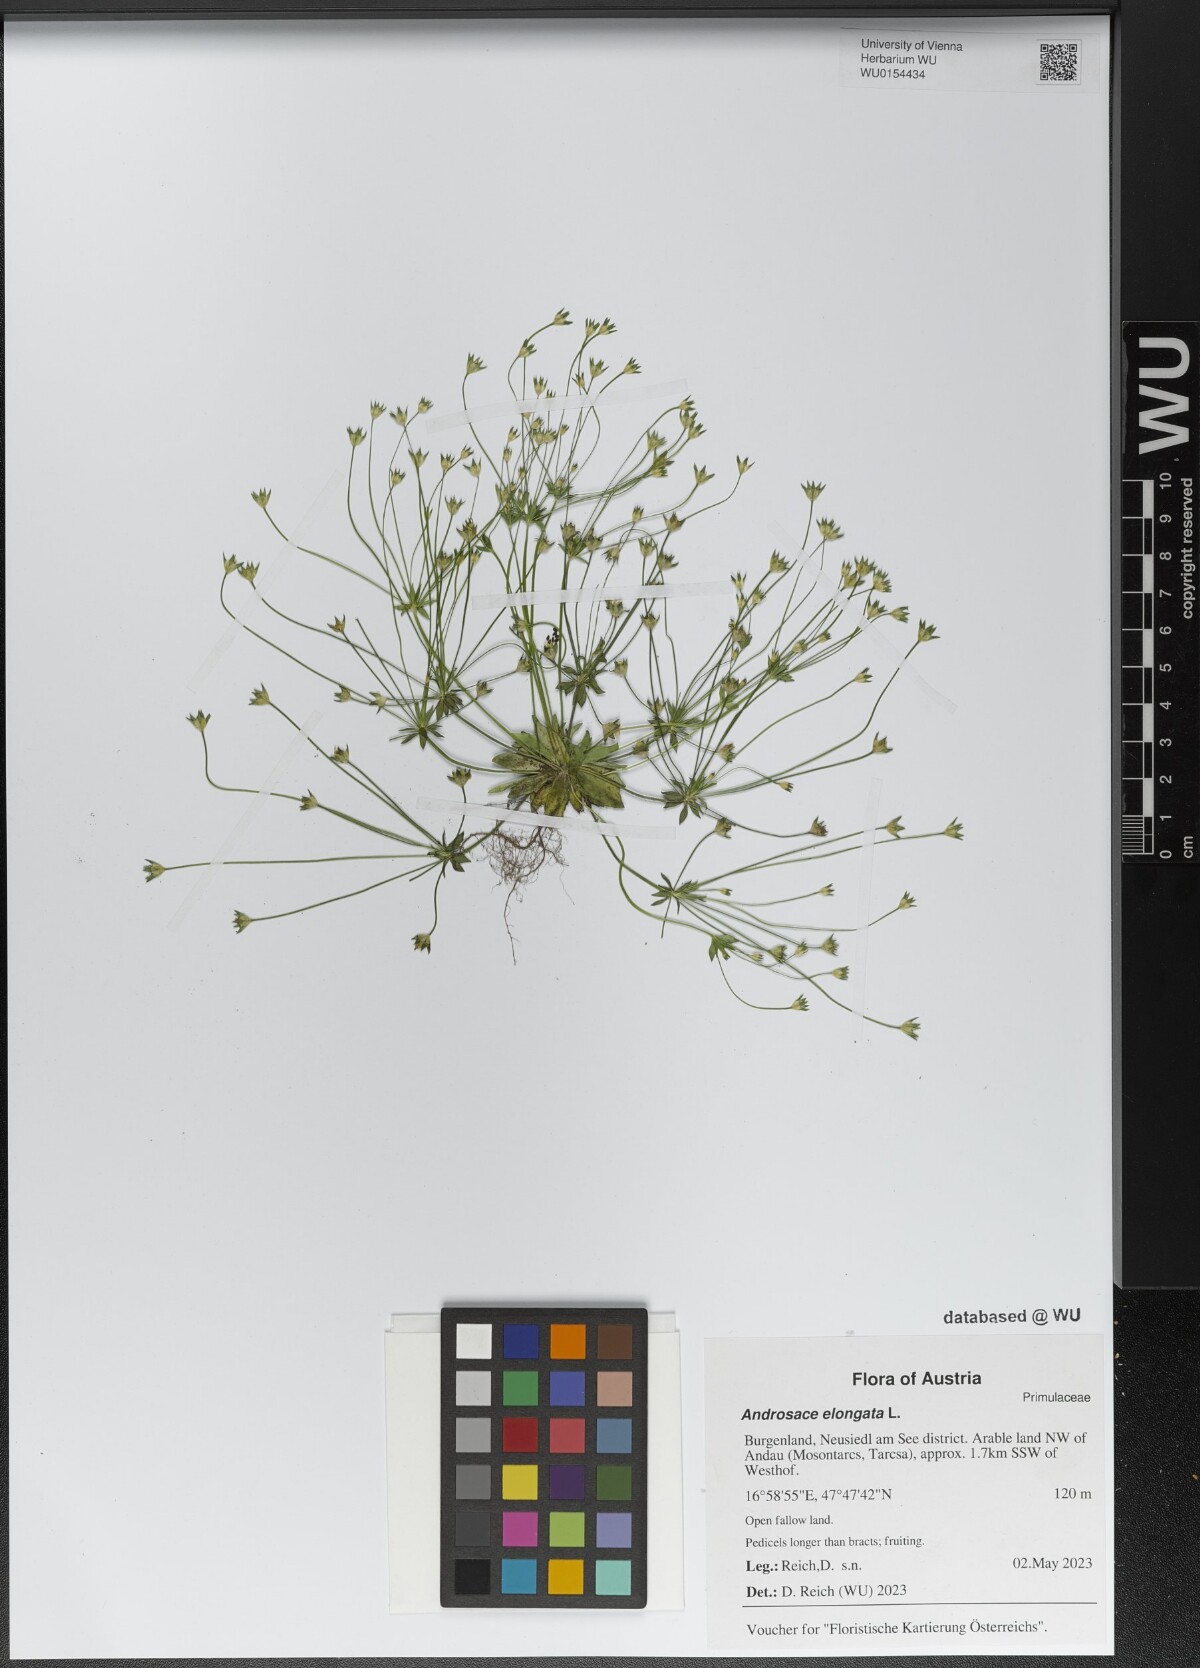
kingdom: Plantae
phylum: Tracheophyta
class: Magnoliopsida
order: Ericales
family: Primulaceae
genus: Androsace
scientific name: Androsace elongata
